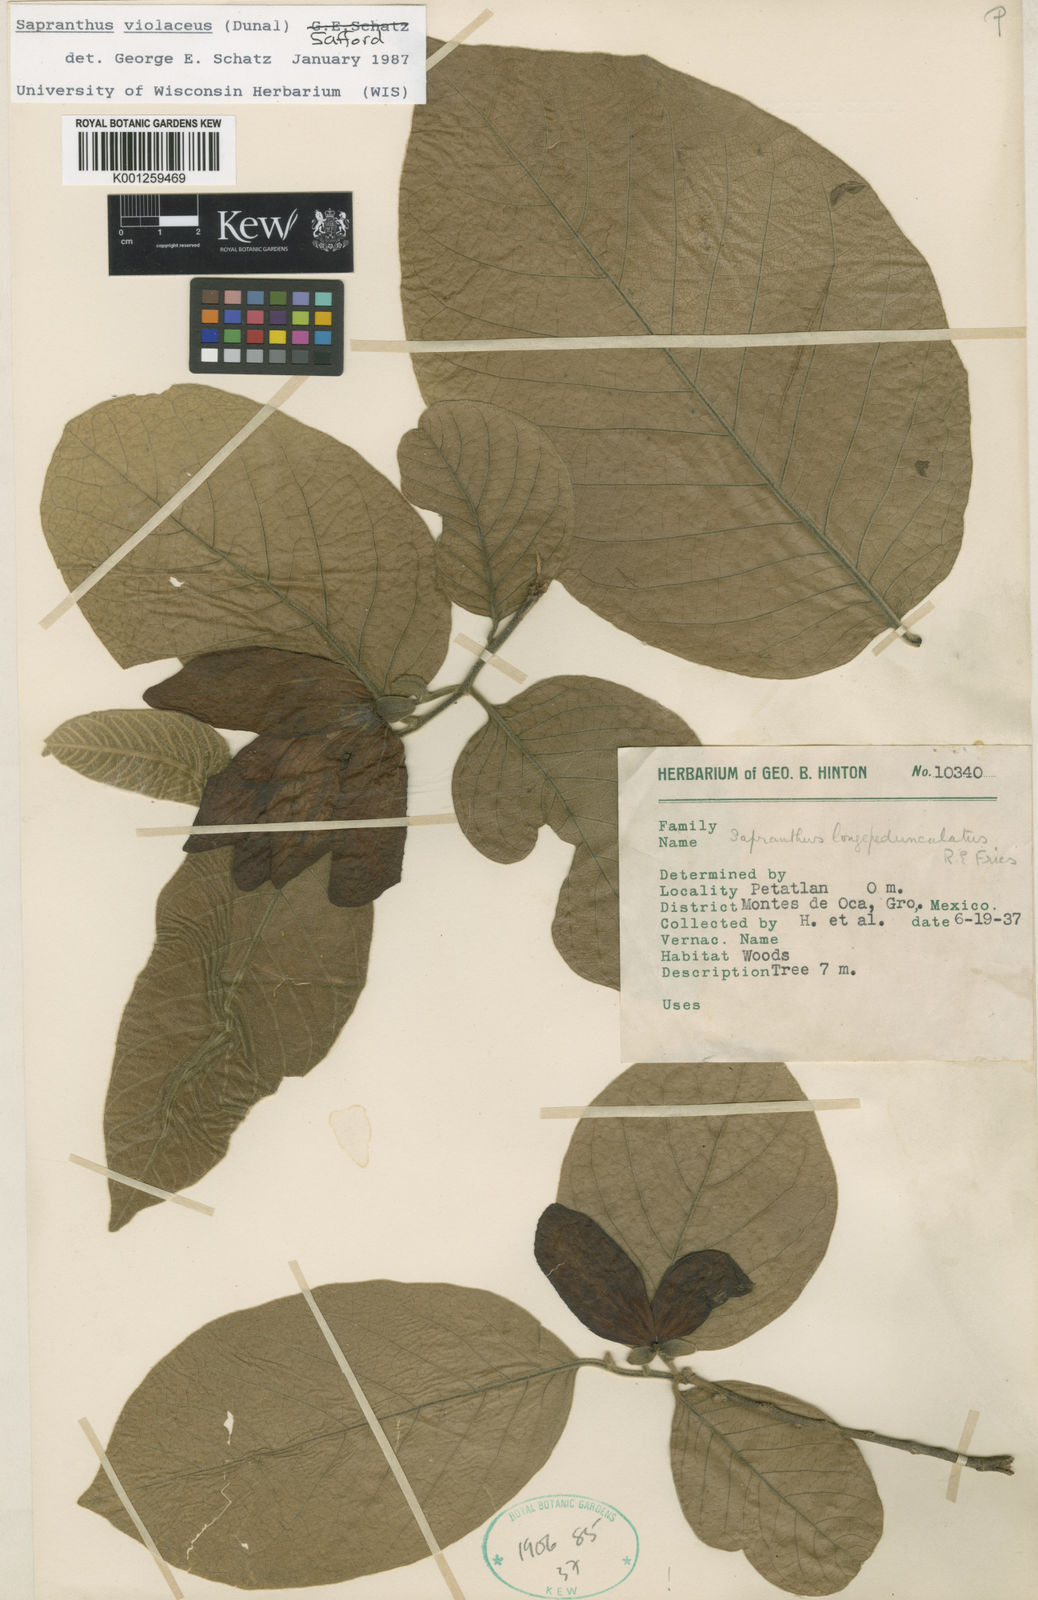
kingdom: Plantae
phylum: Tracheophyta
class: Magnoliopsida
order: Magnoliales
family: Annonaceae
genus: Sapranthus
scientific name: Sapranthus
